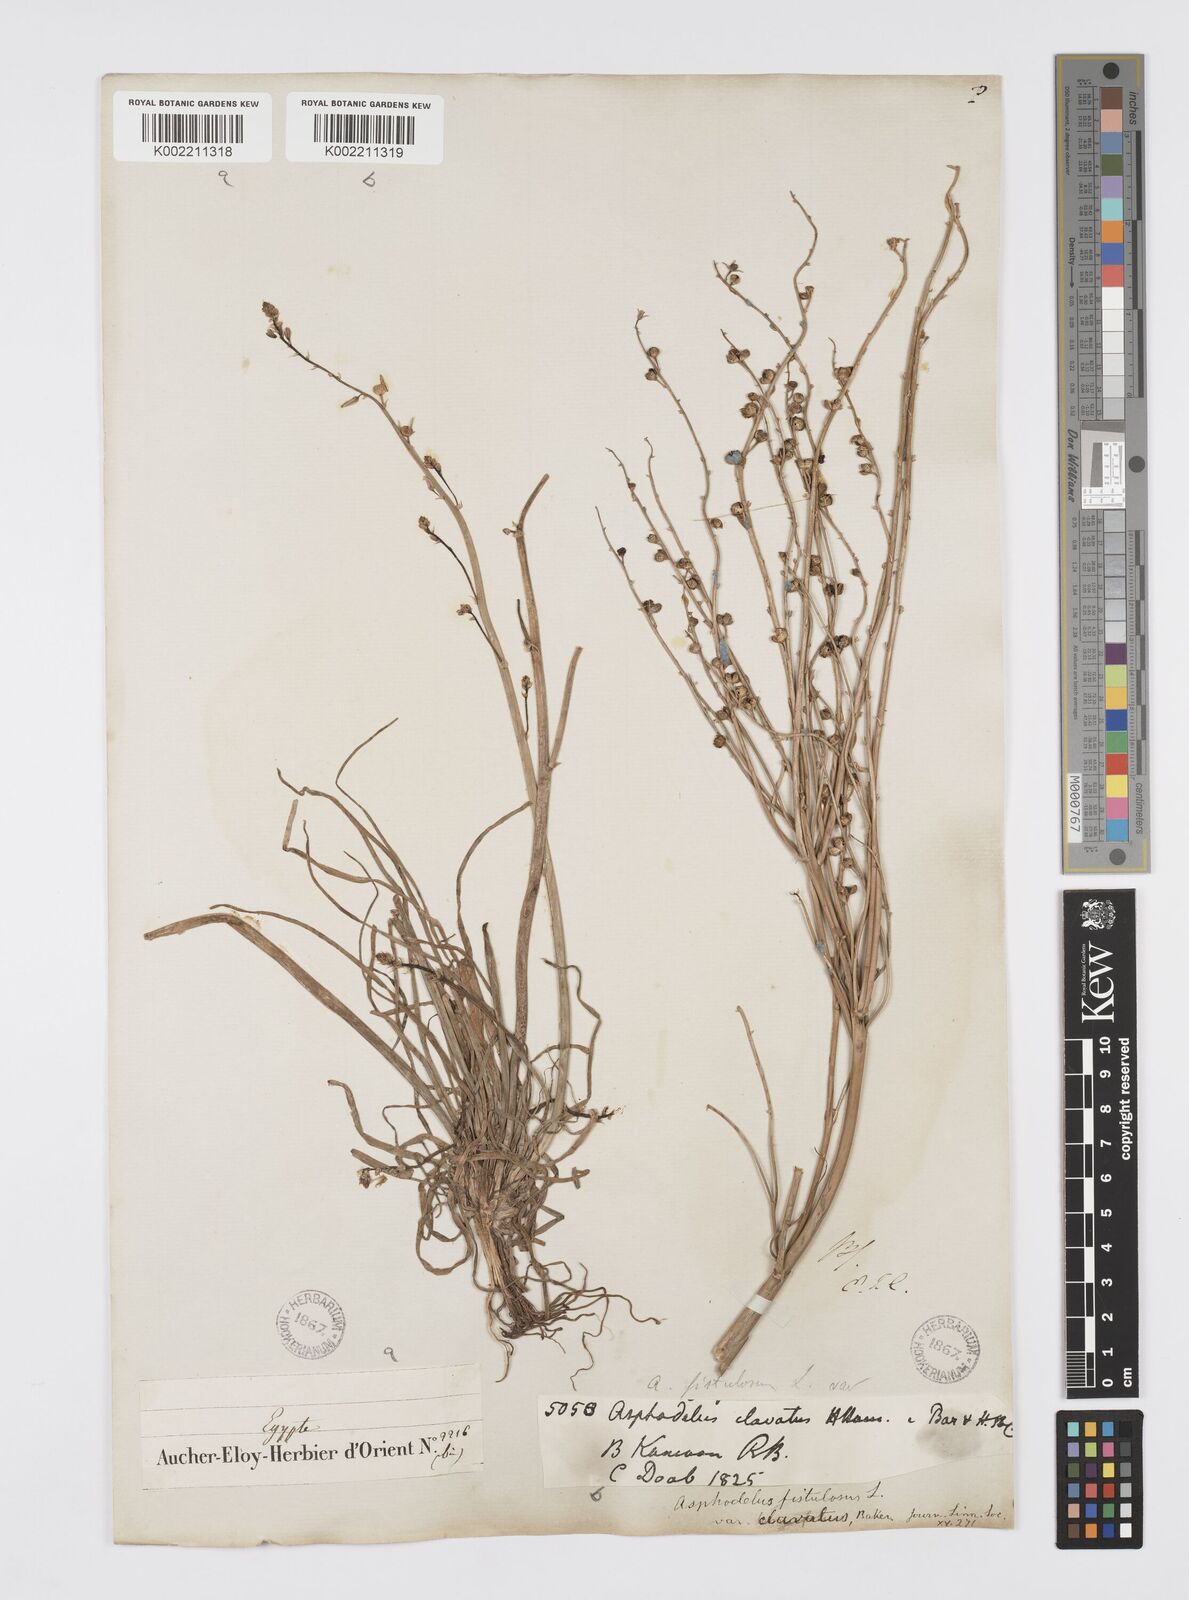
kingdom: Plantae
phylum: Tracheophyta
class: Liliopsida
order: Asparagales
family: Asphodelaceae
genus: Asphodeline
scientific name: Asphodeline tenuior
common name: Thin asphodeline
